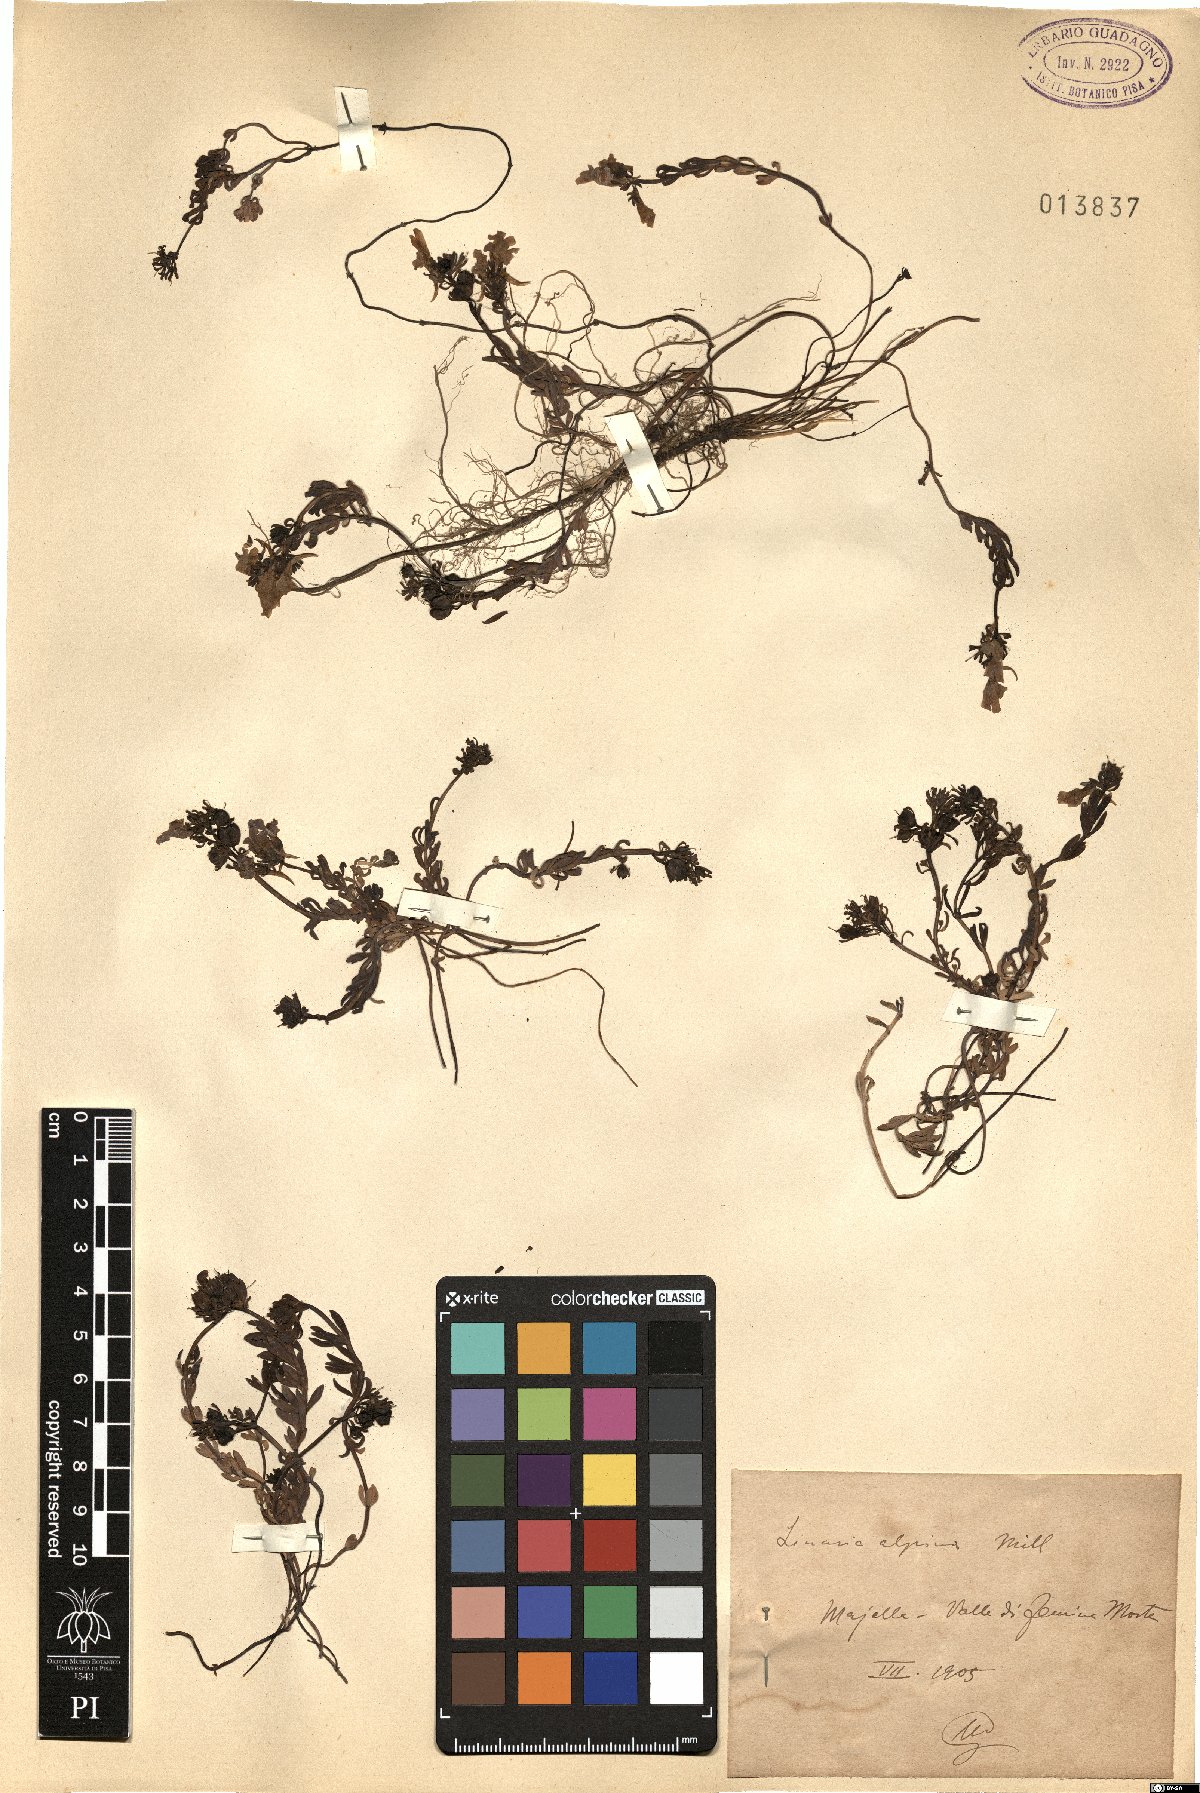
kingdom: Plantae
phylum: Tracheophyta
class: Magnoliopsida
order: Lamiales
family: Plantaginaceae
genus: Linaria
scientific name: Linaria alpina
